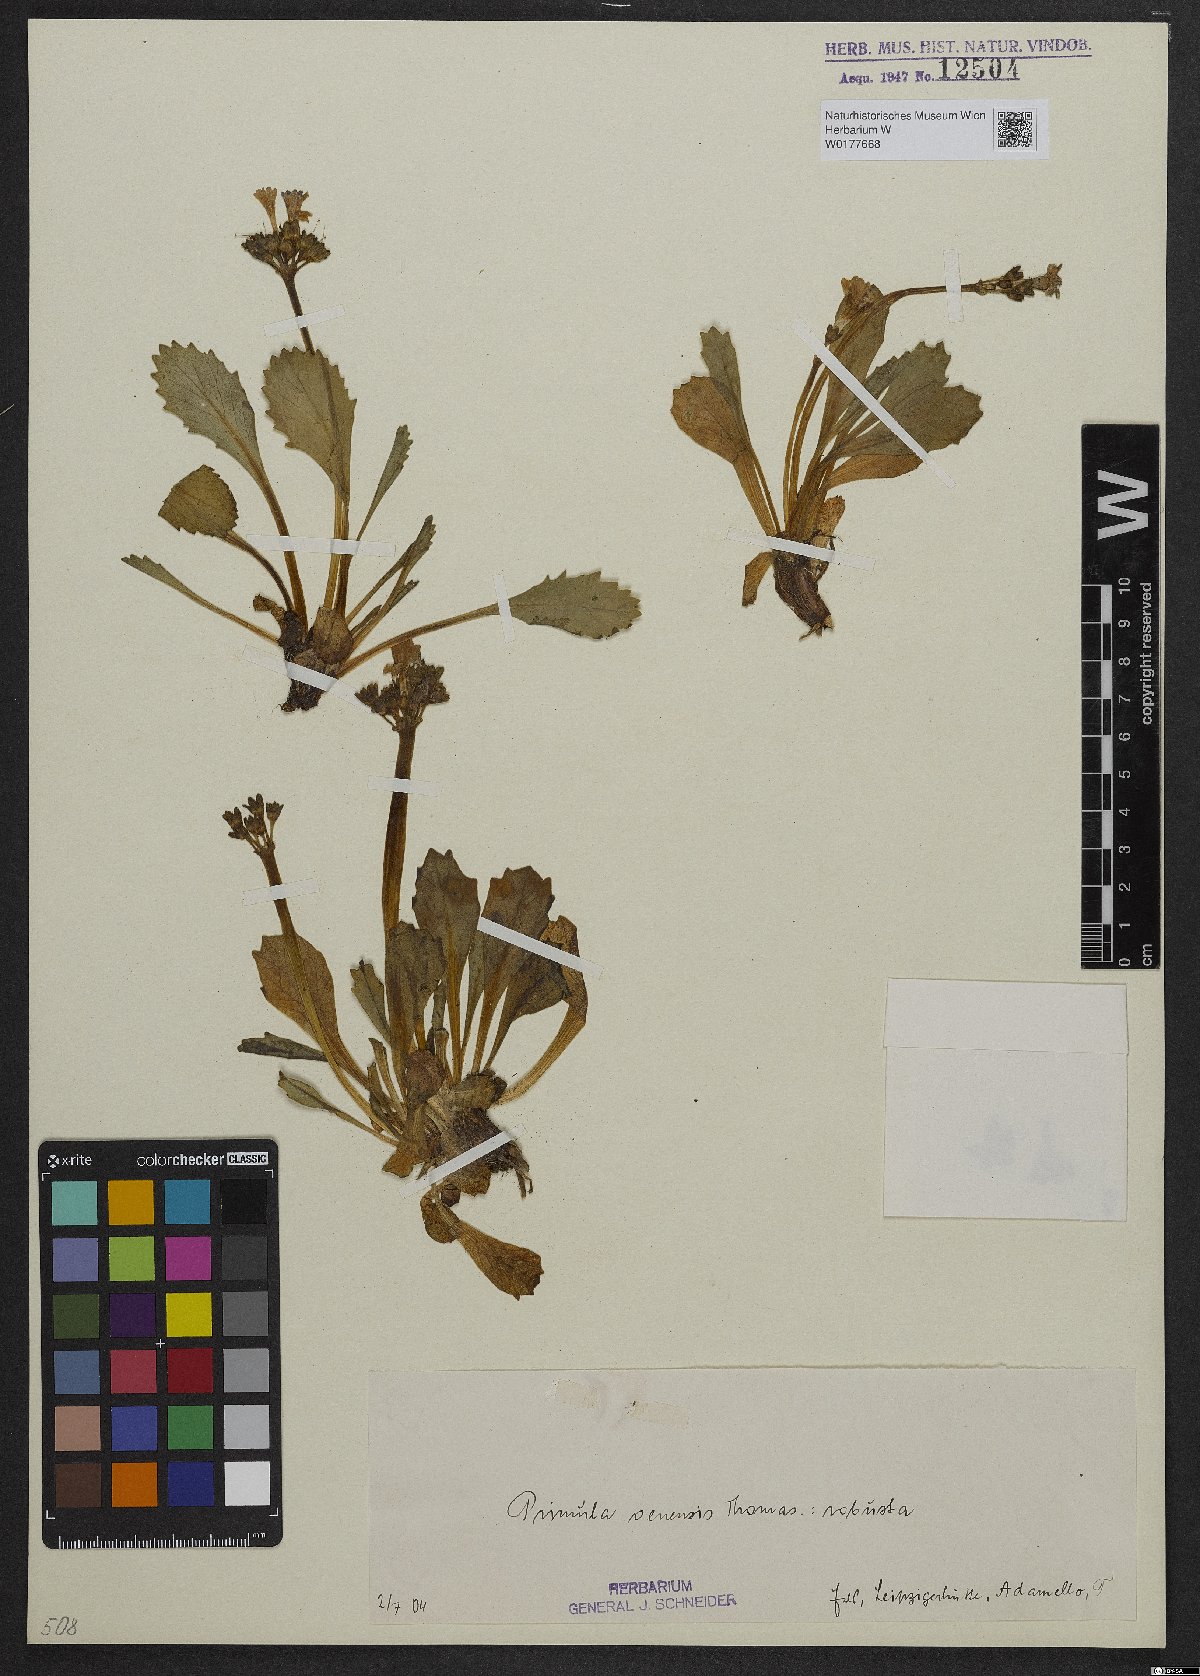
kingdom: Plantae
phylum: Tracheophyta
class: Magnoliopsida
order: Ericales
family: Primulaceae
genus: Primula
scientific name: Primula daonensis
